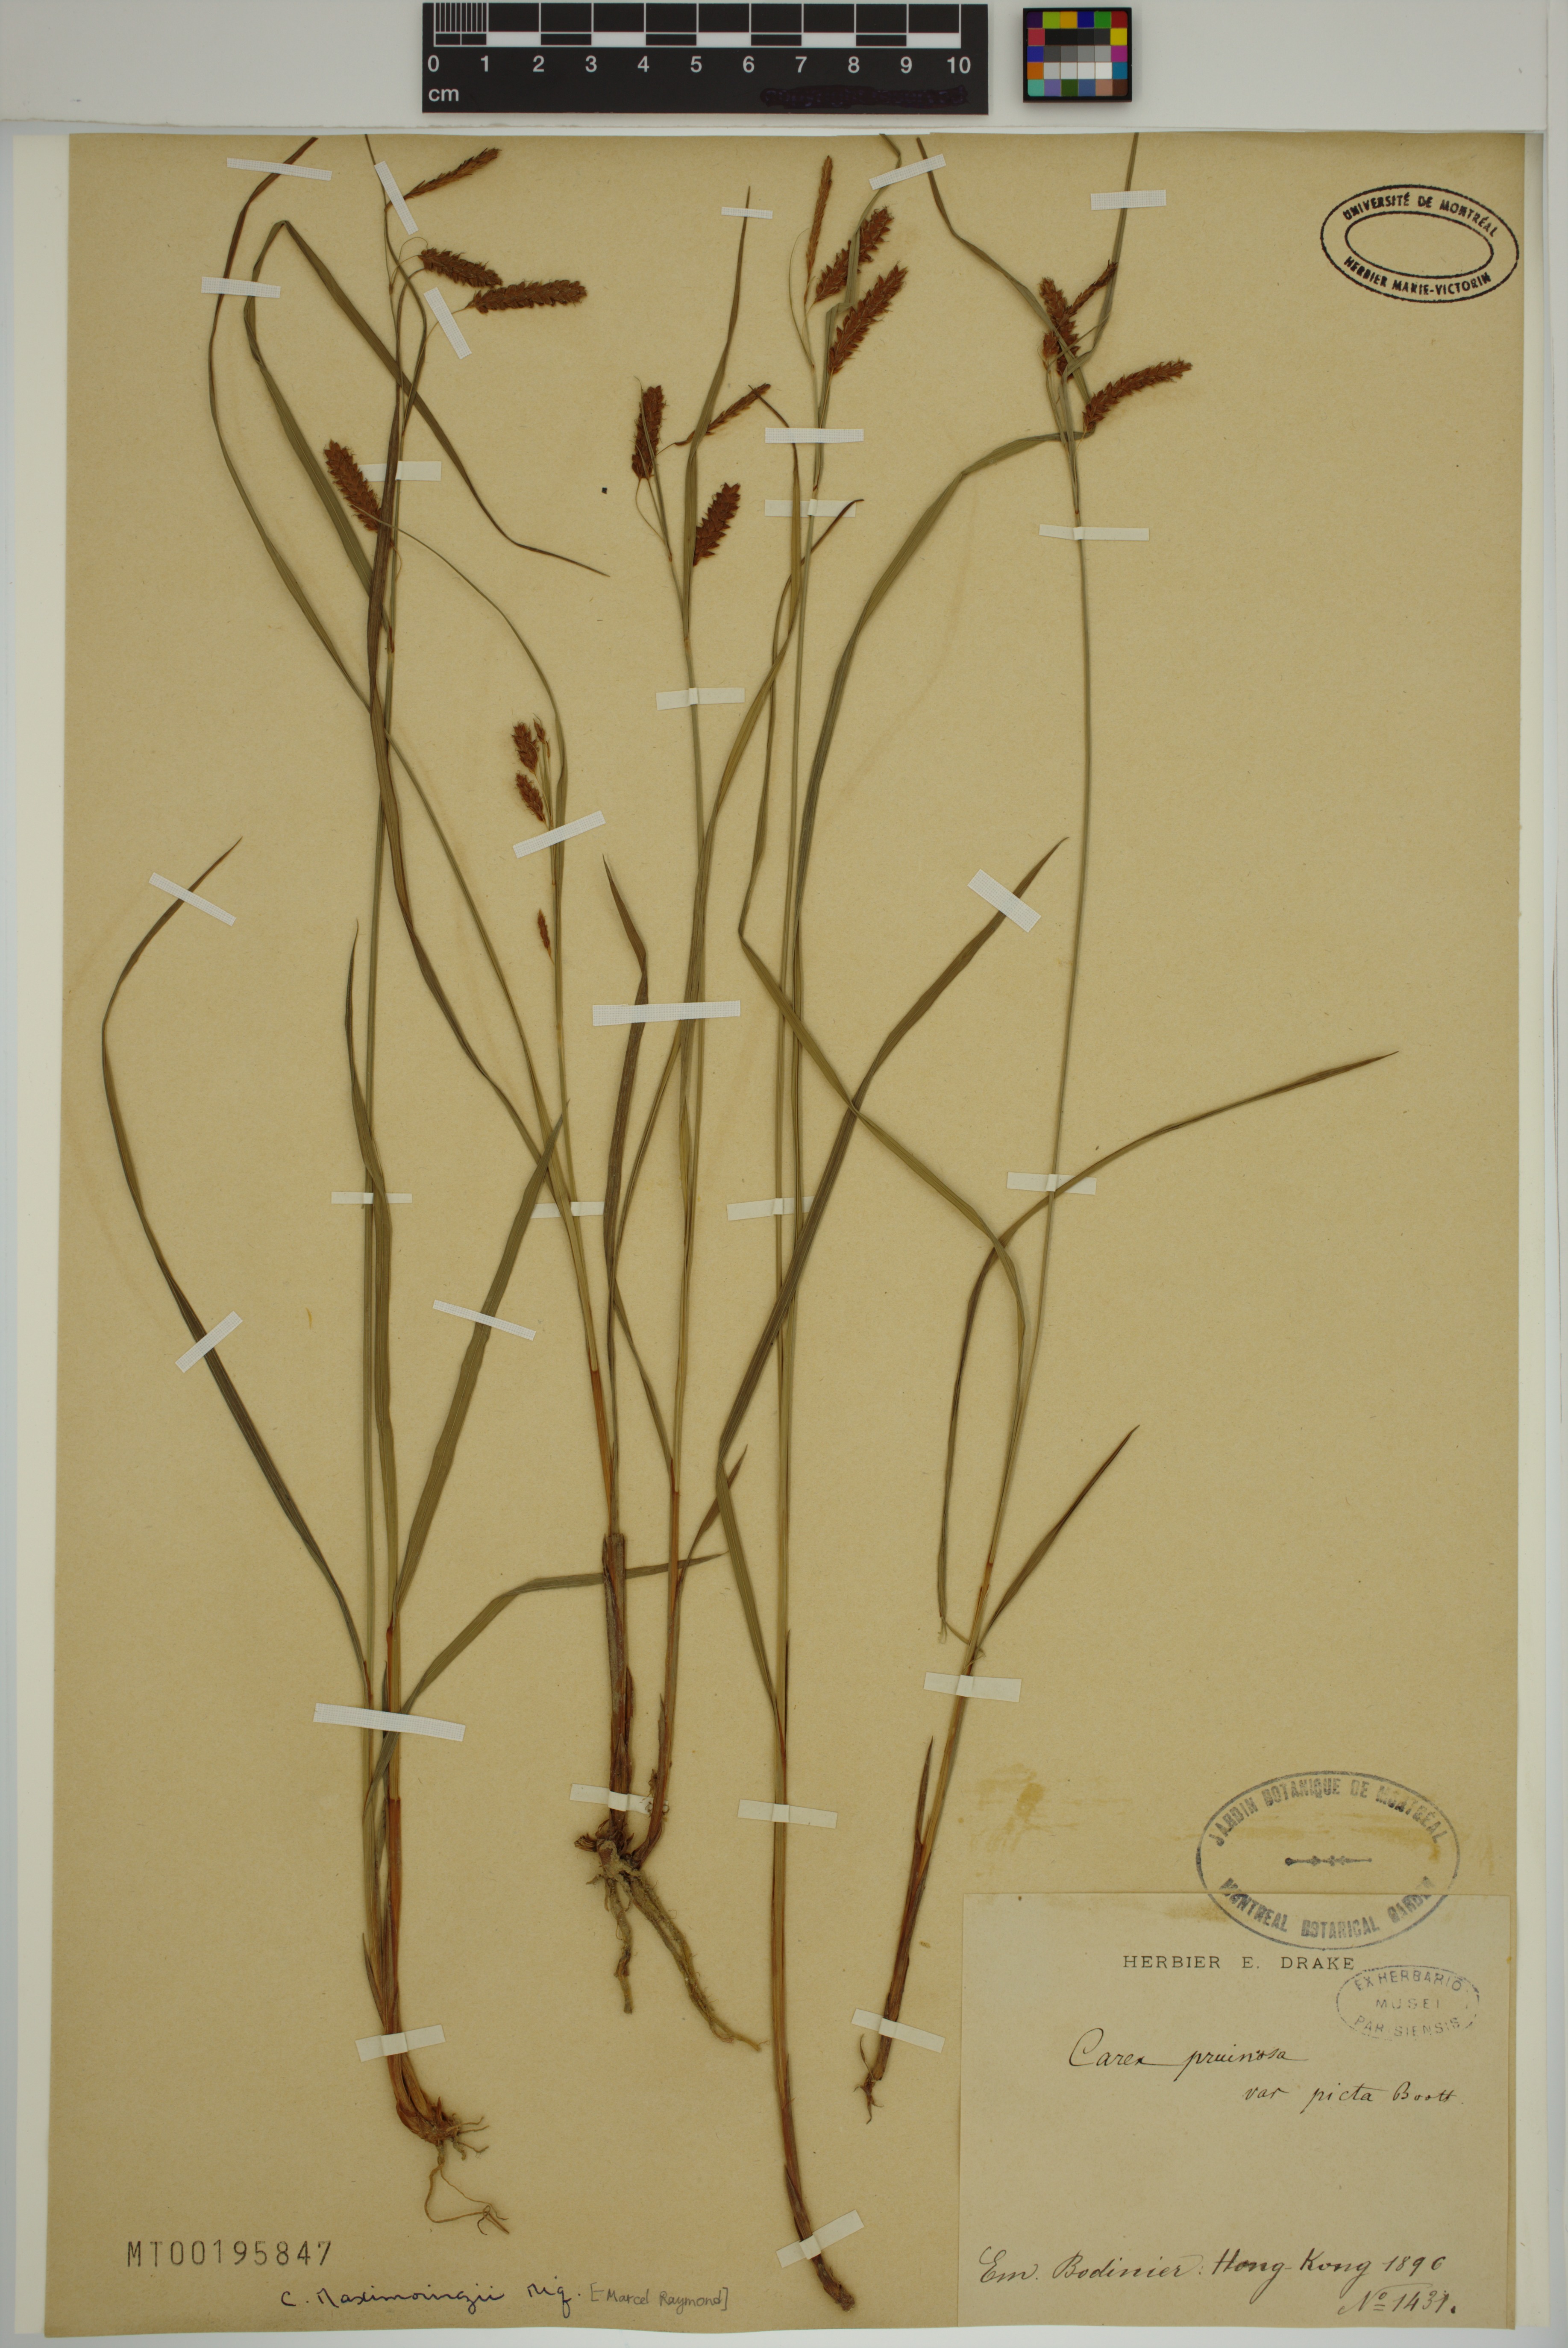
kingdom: Plantae
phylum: Tracheophyta
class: Liliopsida
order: Poales
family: Cyperaceae
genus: Carex
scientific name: Carex maximowiczii
